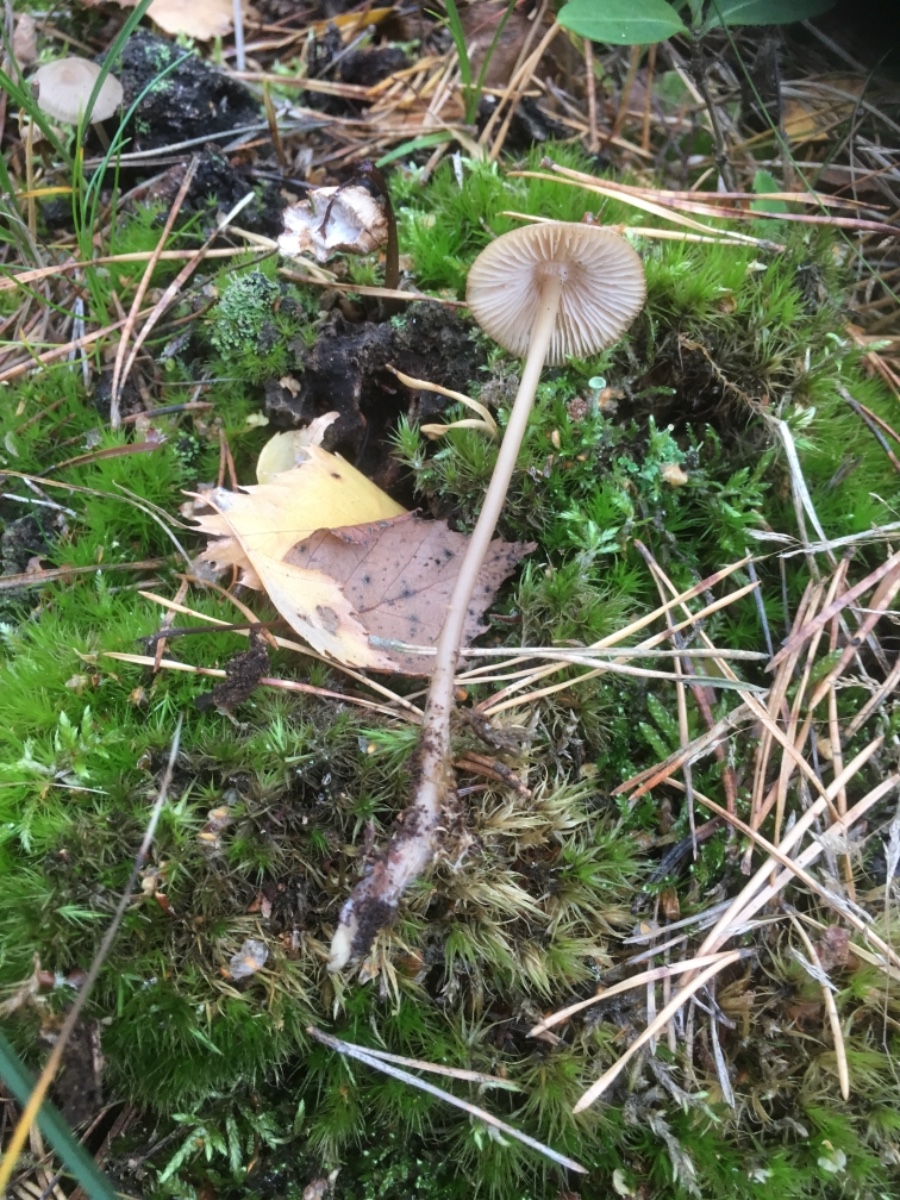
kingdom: Fungi
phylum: Basidiomycota
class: Agaricomycetes
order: Agaricales
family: Mycenaceae
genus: Mycena
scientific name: Mycena galericulata
